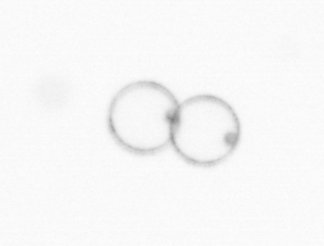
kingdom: Chromista
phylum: Myzozoa
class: Dinophyceae
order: Noctilucales
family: Noctilucaceae
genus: Noctiluca
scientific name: Noctiluca scintillans
